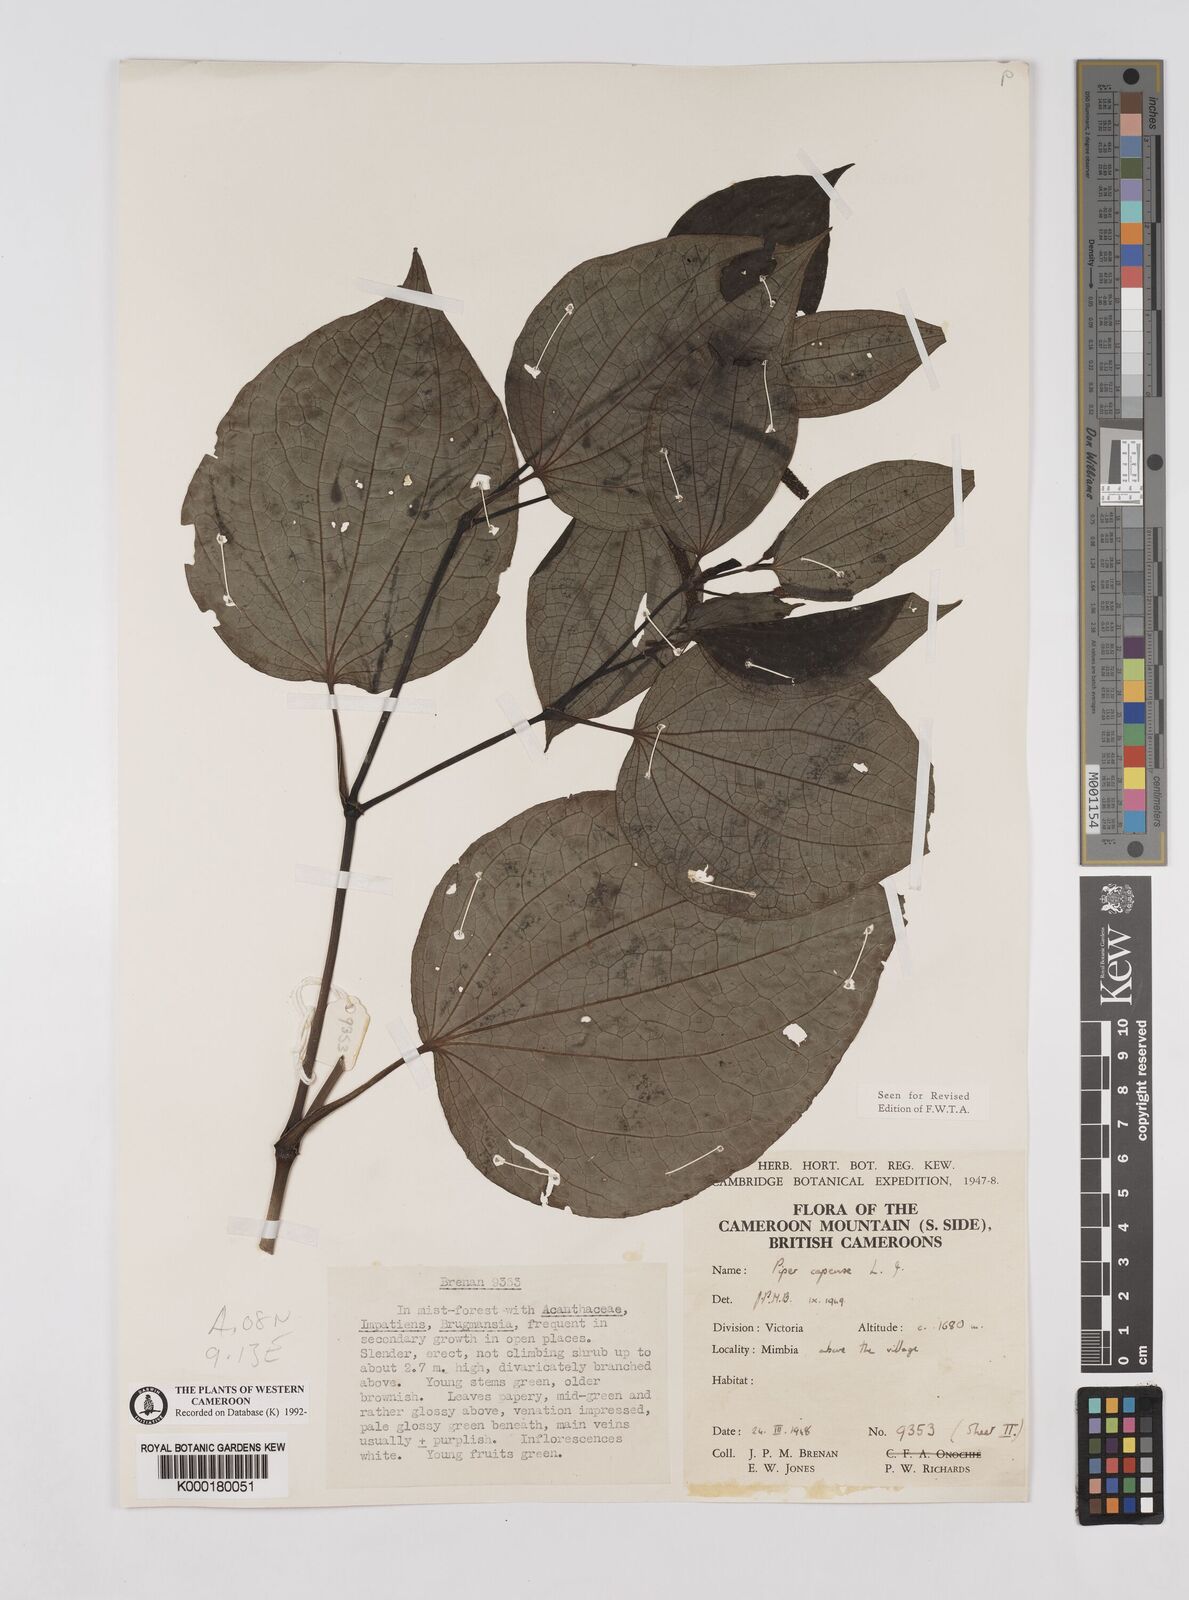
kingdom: Plantae
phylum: Tracheophyta
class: Magnoliopsida
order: Piperales
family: Piperaceae
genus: Piper
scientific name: Piper capense
